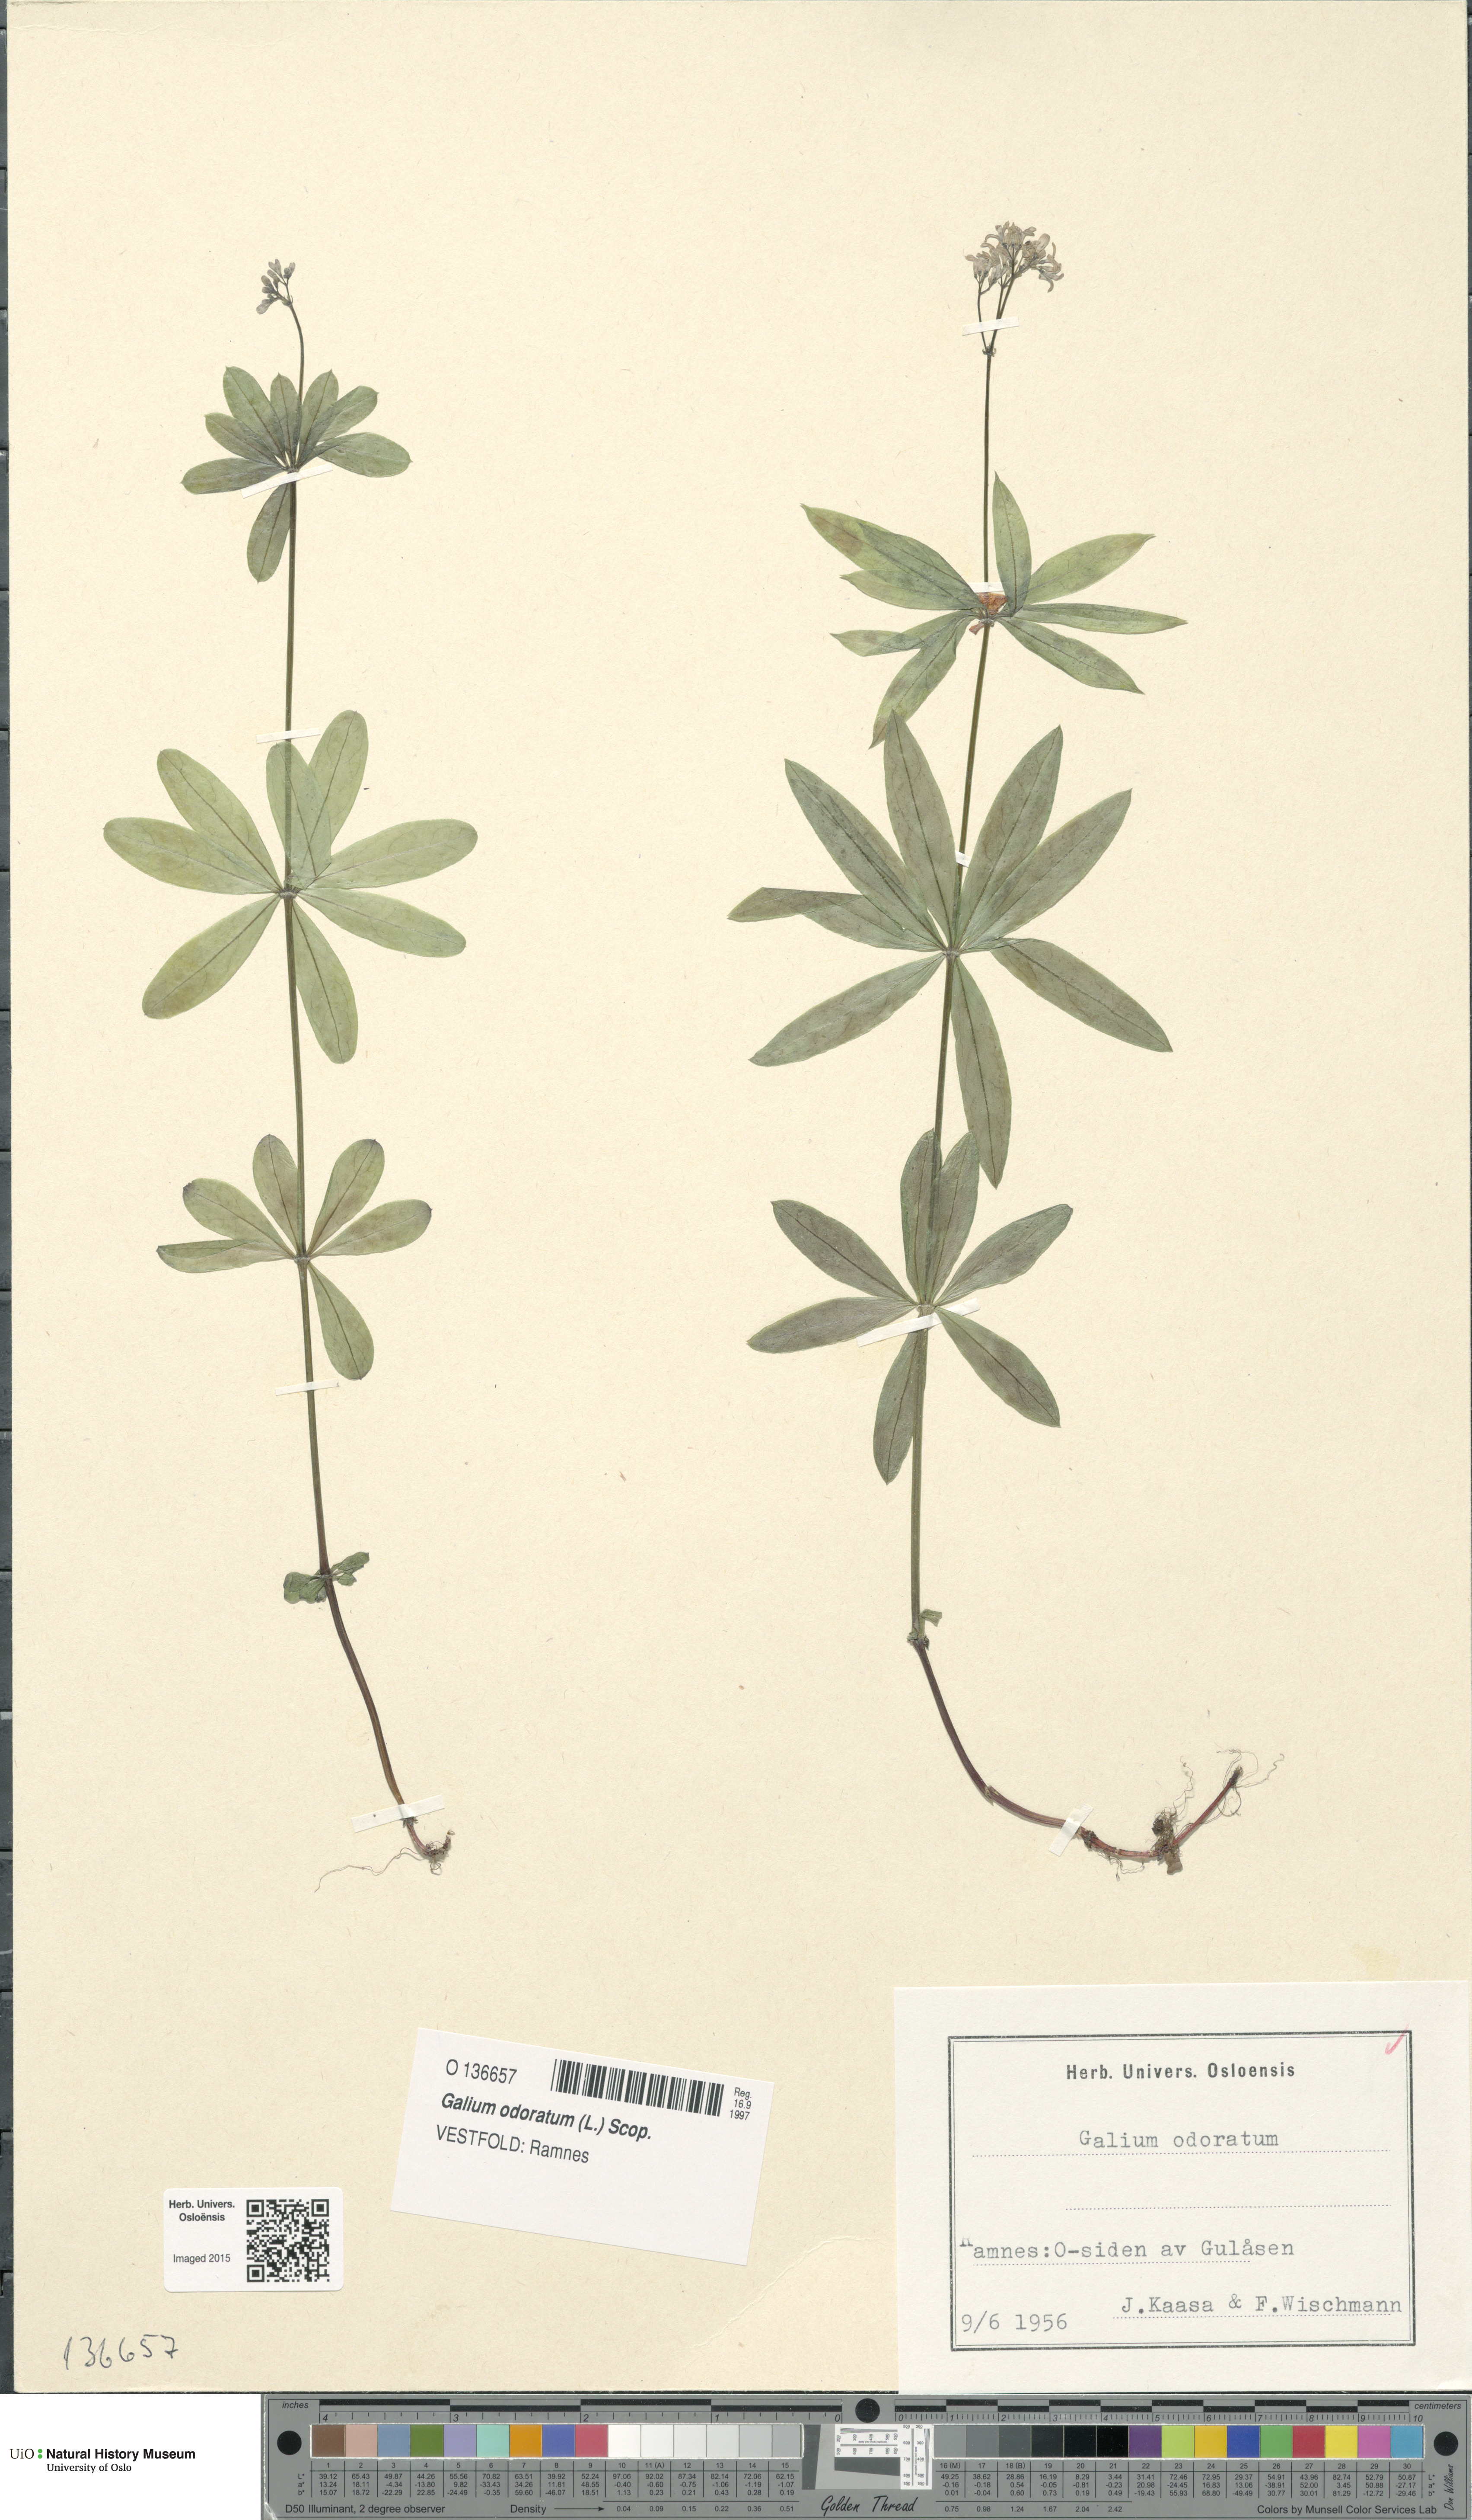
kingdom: Plantae
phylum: Tracheophyta
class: Magnoliopsida
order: Gentianales
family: Rubiaceae
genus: Galium
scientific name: Galium odoratum
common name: Sweet woodruff
